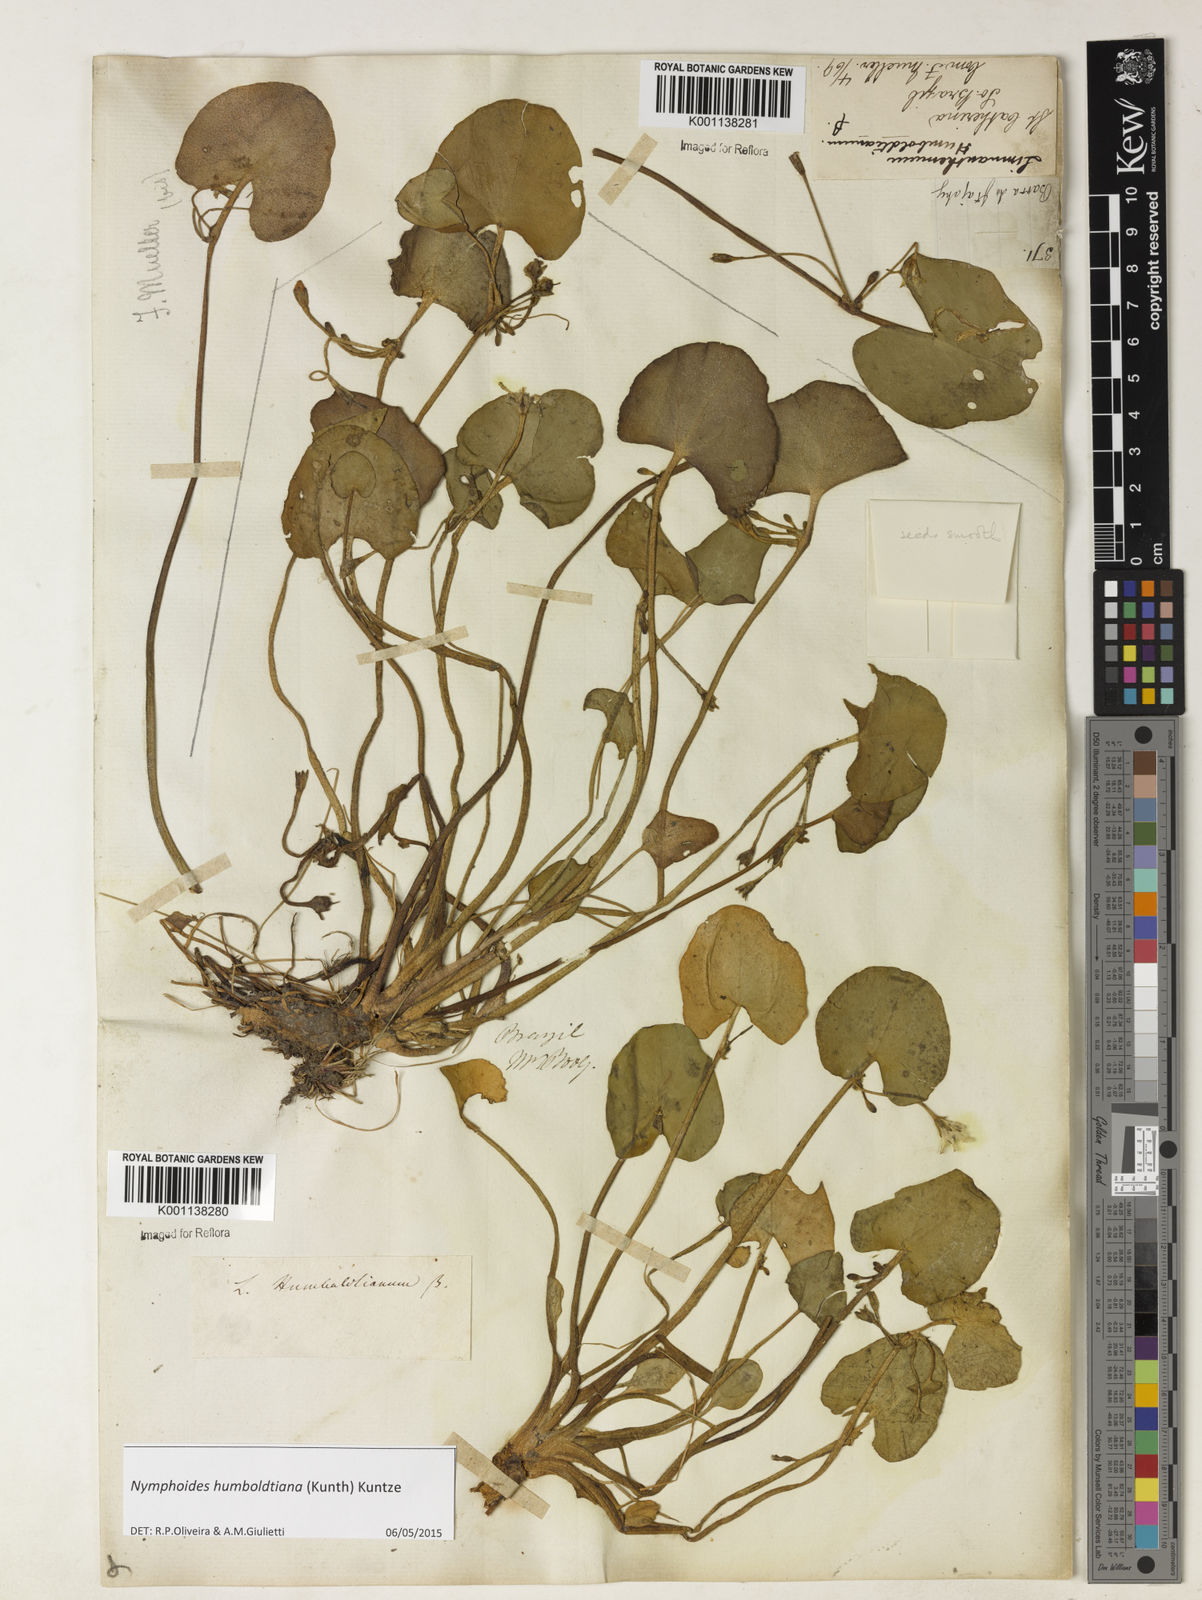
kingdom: Plantae
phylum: Tracheophyta
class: Magnoliopsida
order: Asterales
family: Menyanthaceae
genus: Nymphoides
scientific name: Nymphoides humboldtiana
